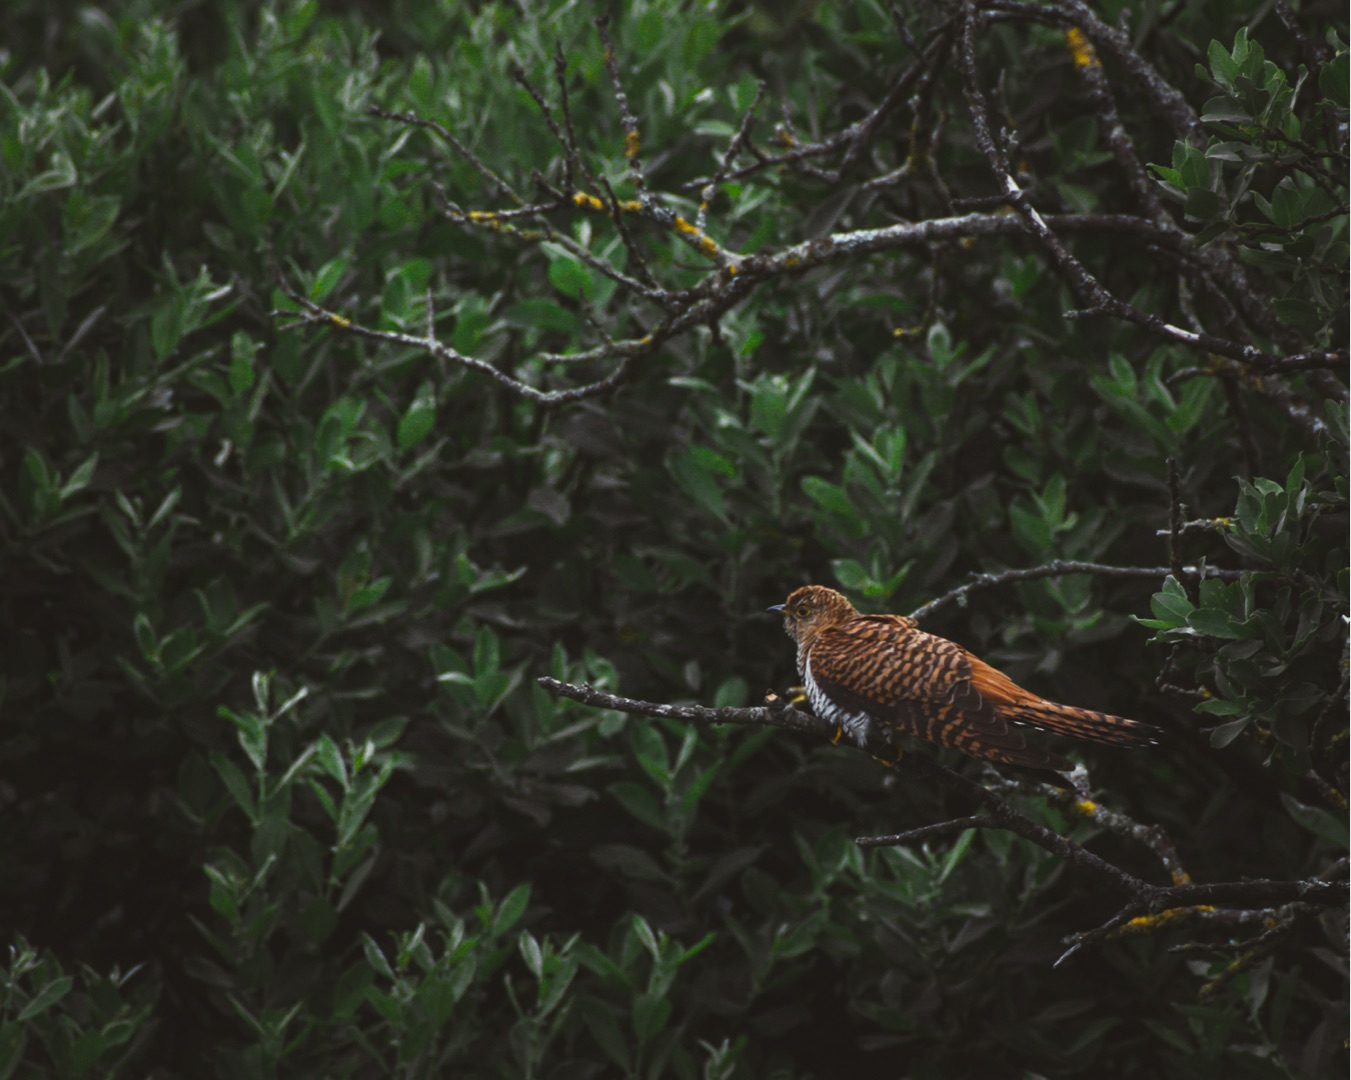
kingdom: Animalia
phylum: Chordata
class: Aves
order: Cuculiformes
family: Cuculidae
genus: Cuculus
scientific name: Cuculus canorus
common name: Gøg
